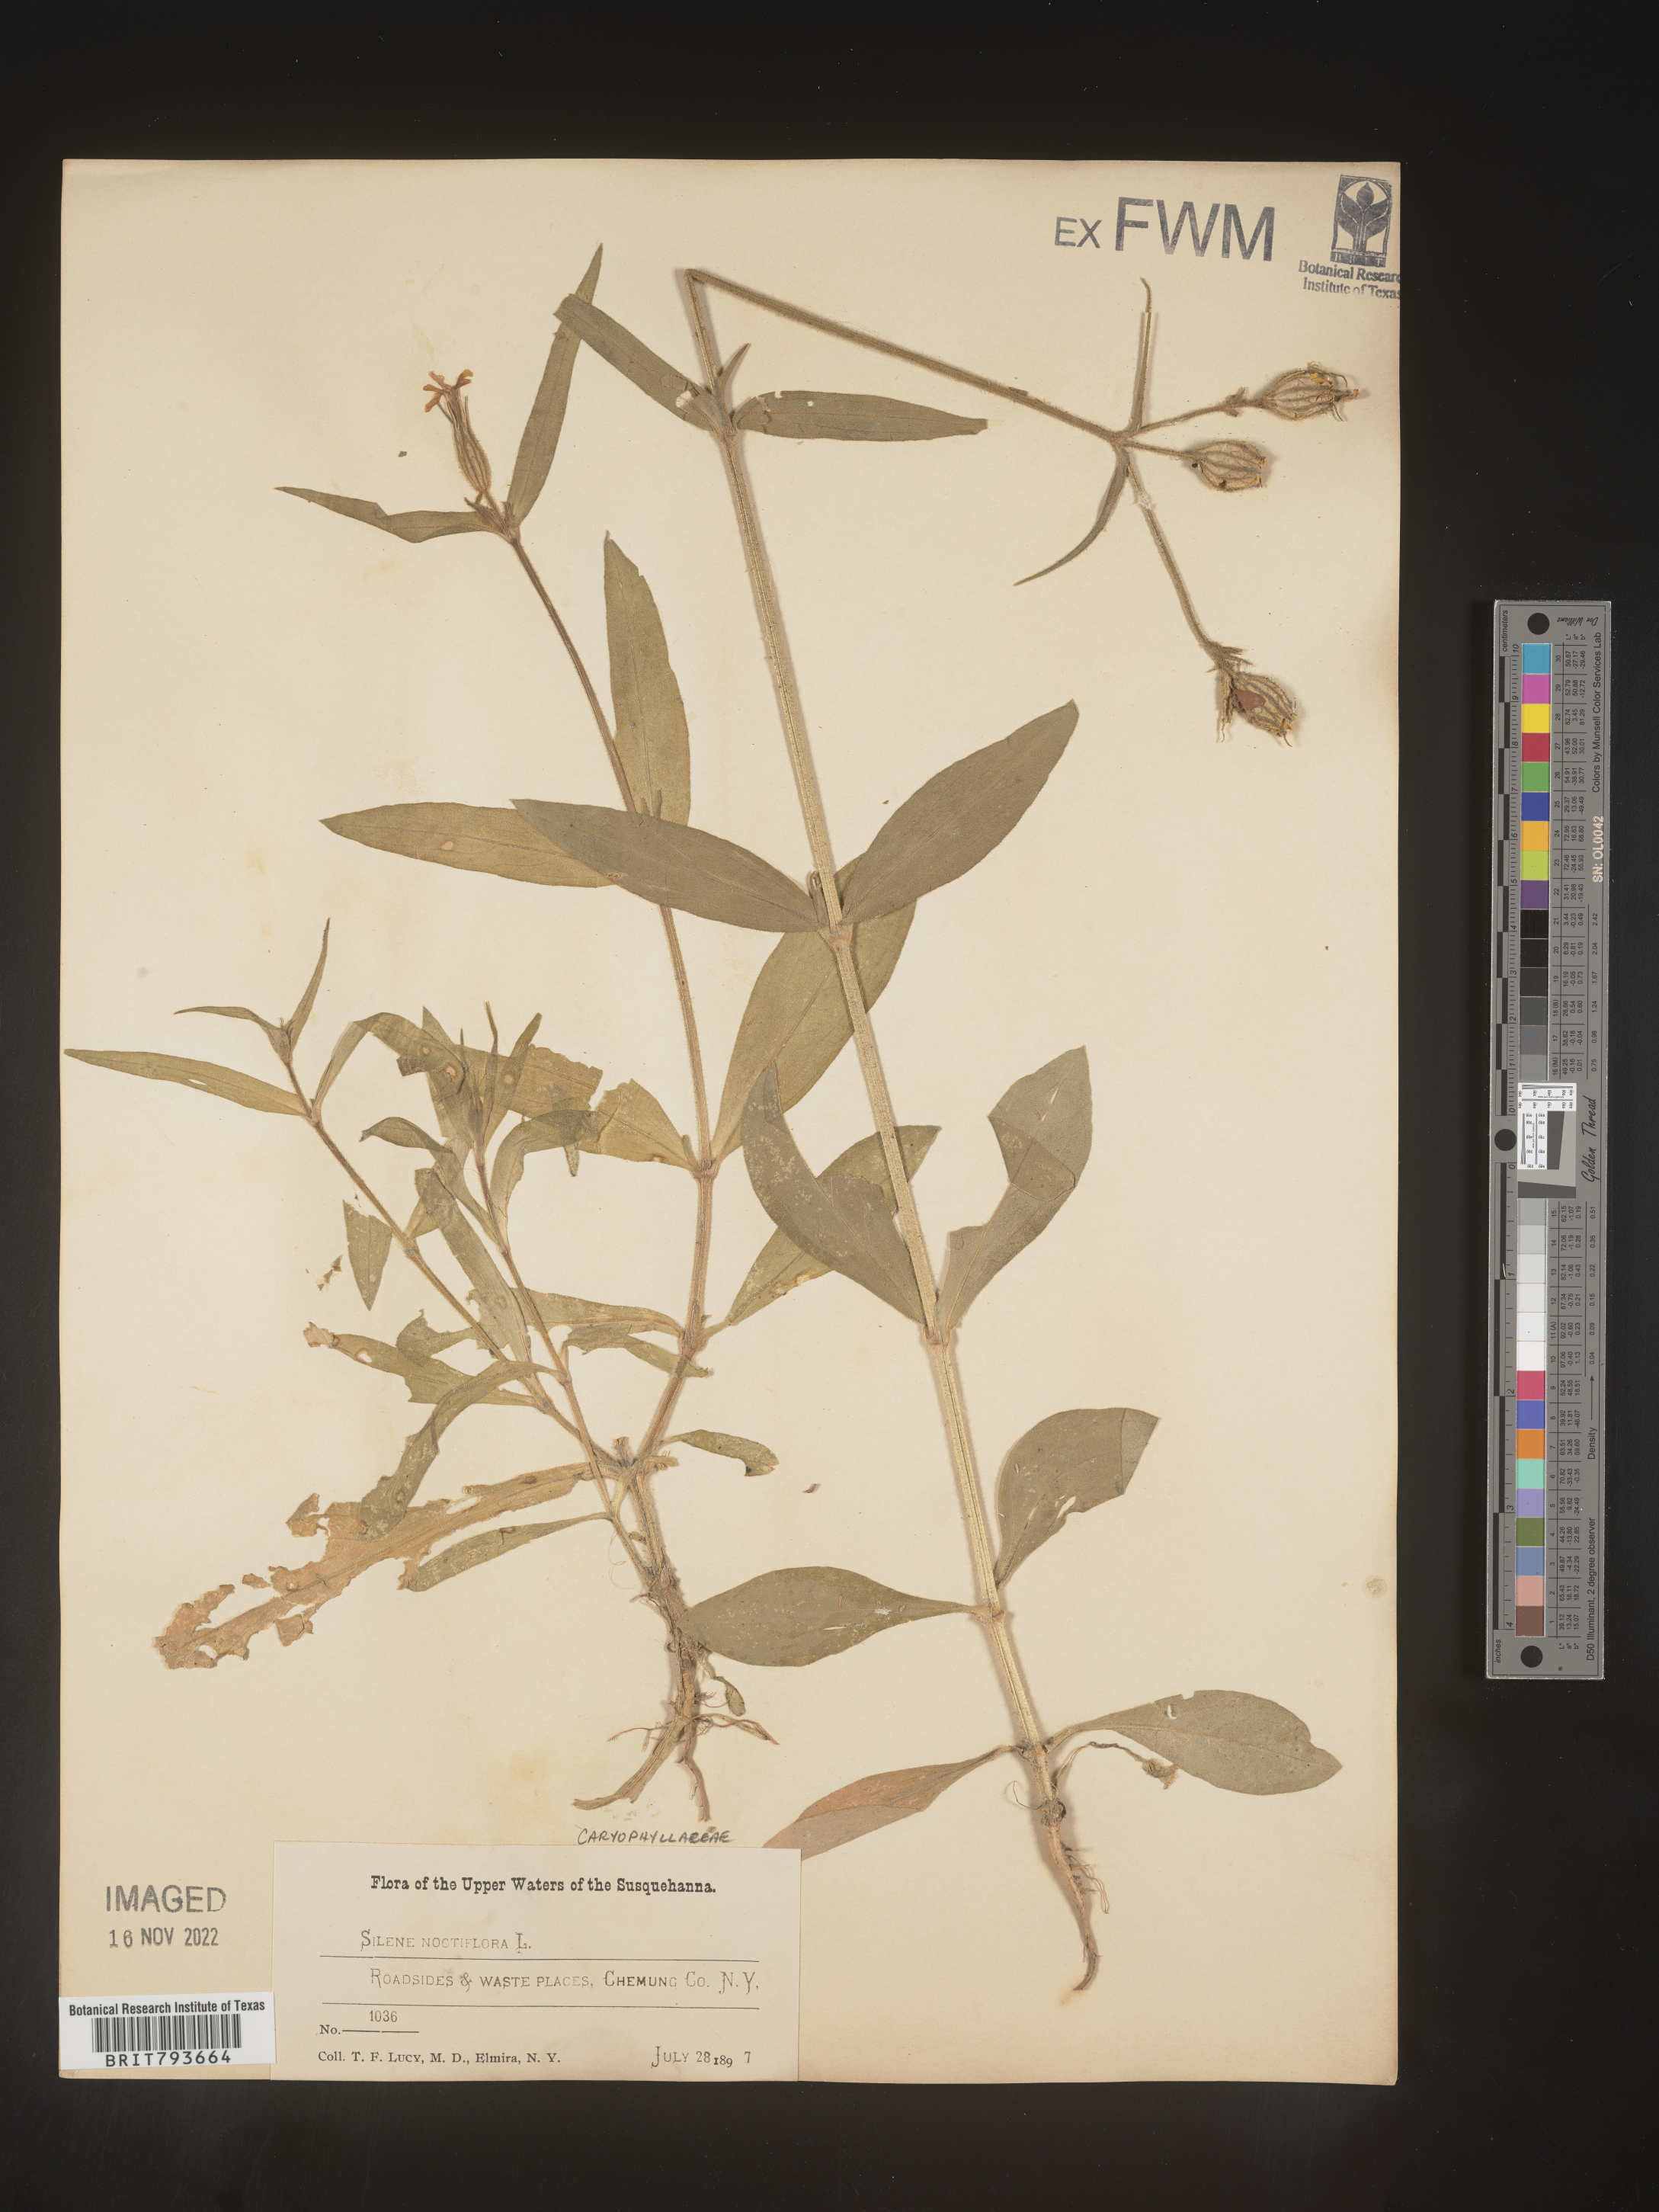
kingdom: Plantae
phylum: Tracheophyta
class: Magnoliopsida
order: Caryophyllales
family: Caryophyllaceae
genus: Silene
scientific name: Silene noctiflora
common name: Night-flowering catchfly
